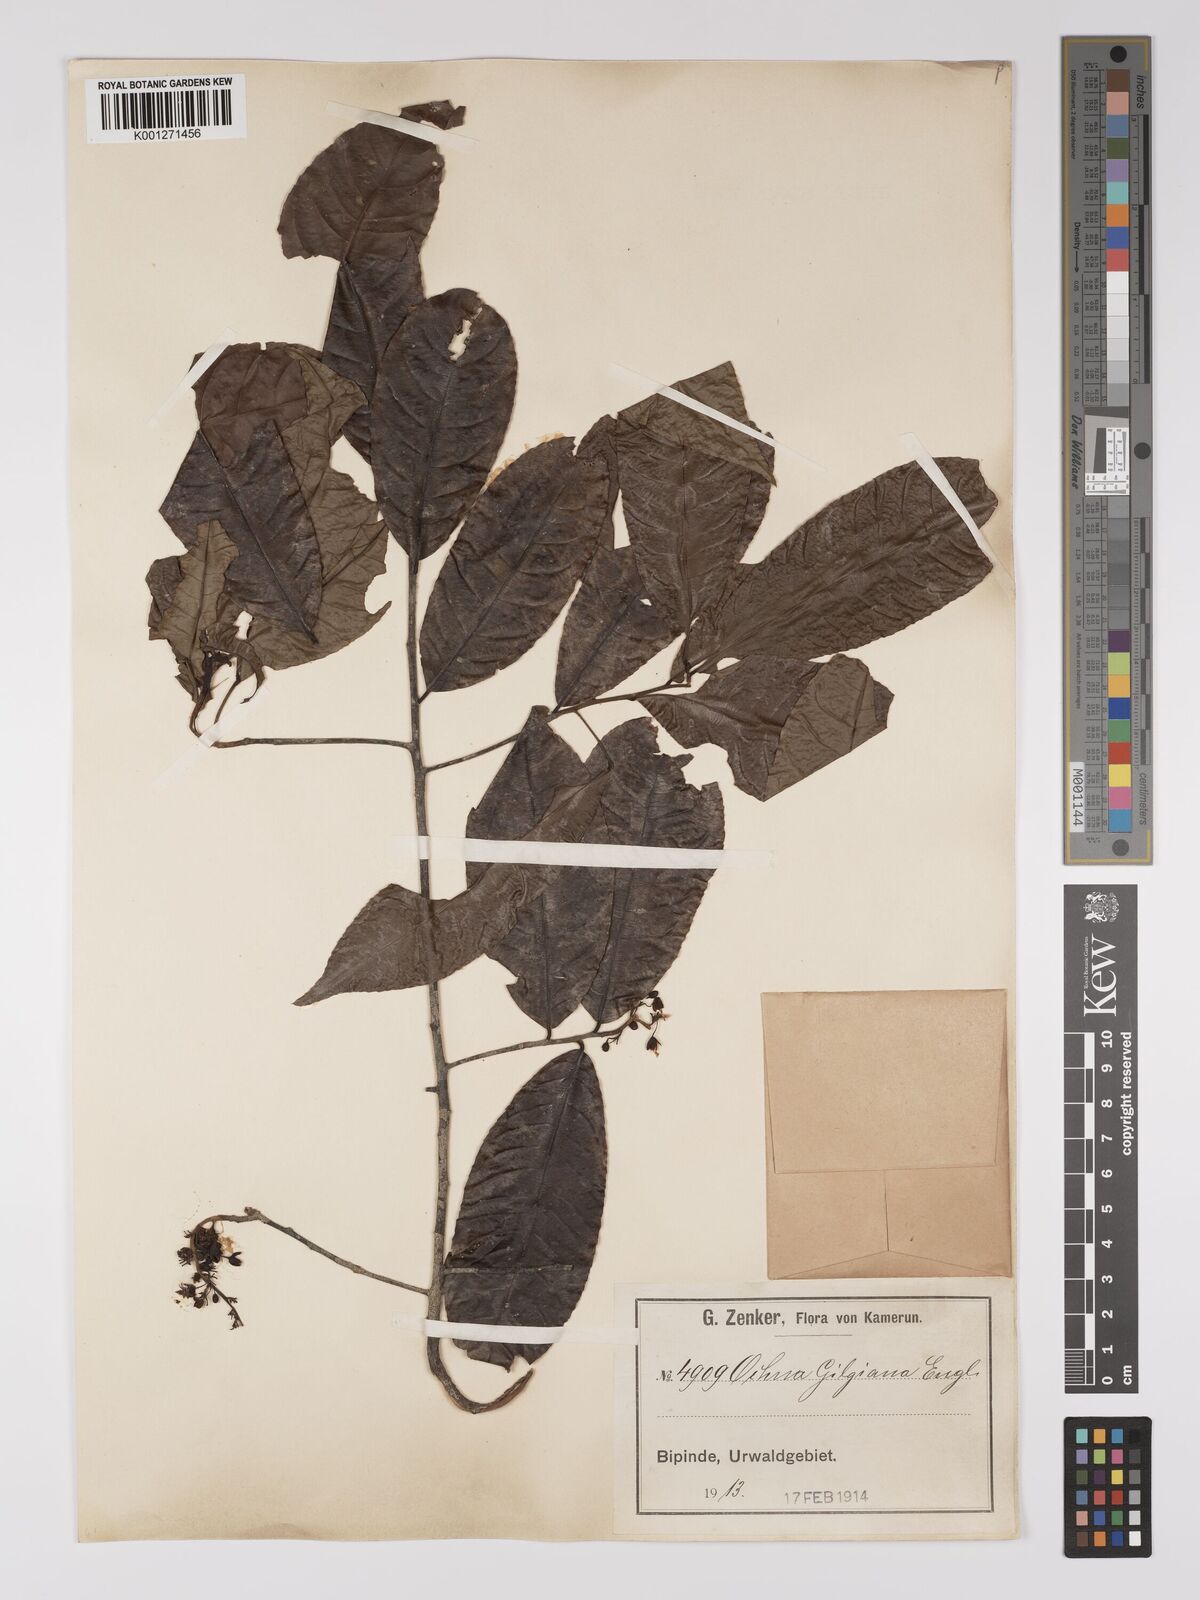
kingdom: Plantae
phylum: Tracheophyta
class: Magnoliopsida
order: Malpighiales
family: Ochnaceae
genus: Ochna
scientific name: Ochna membranacea
